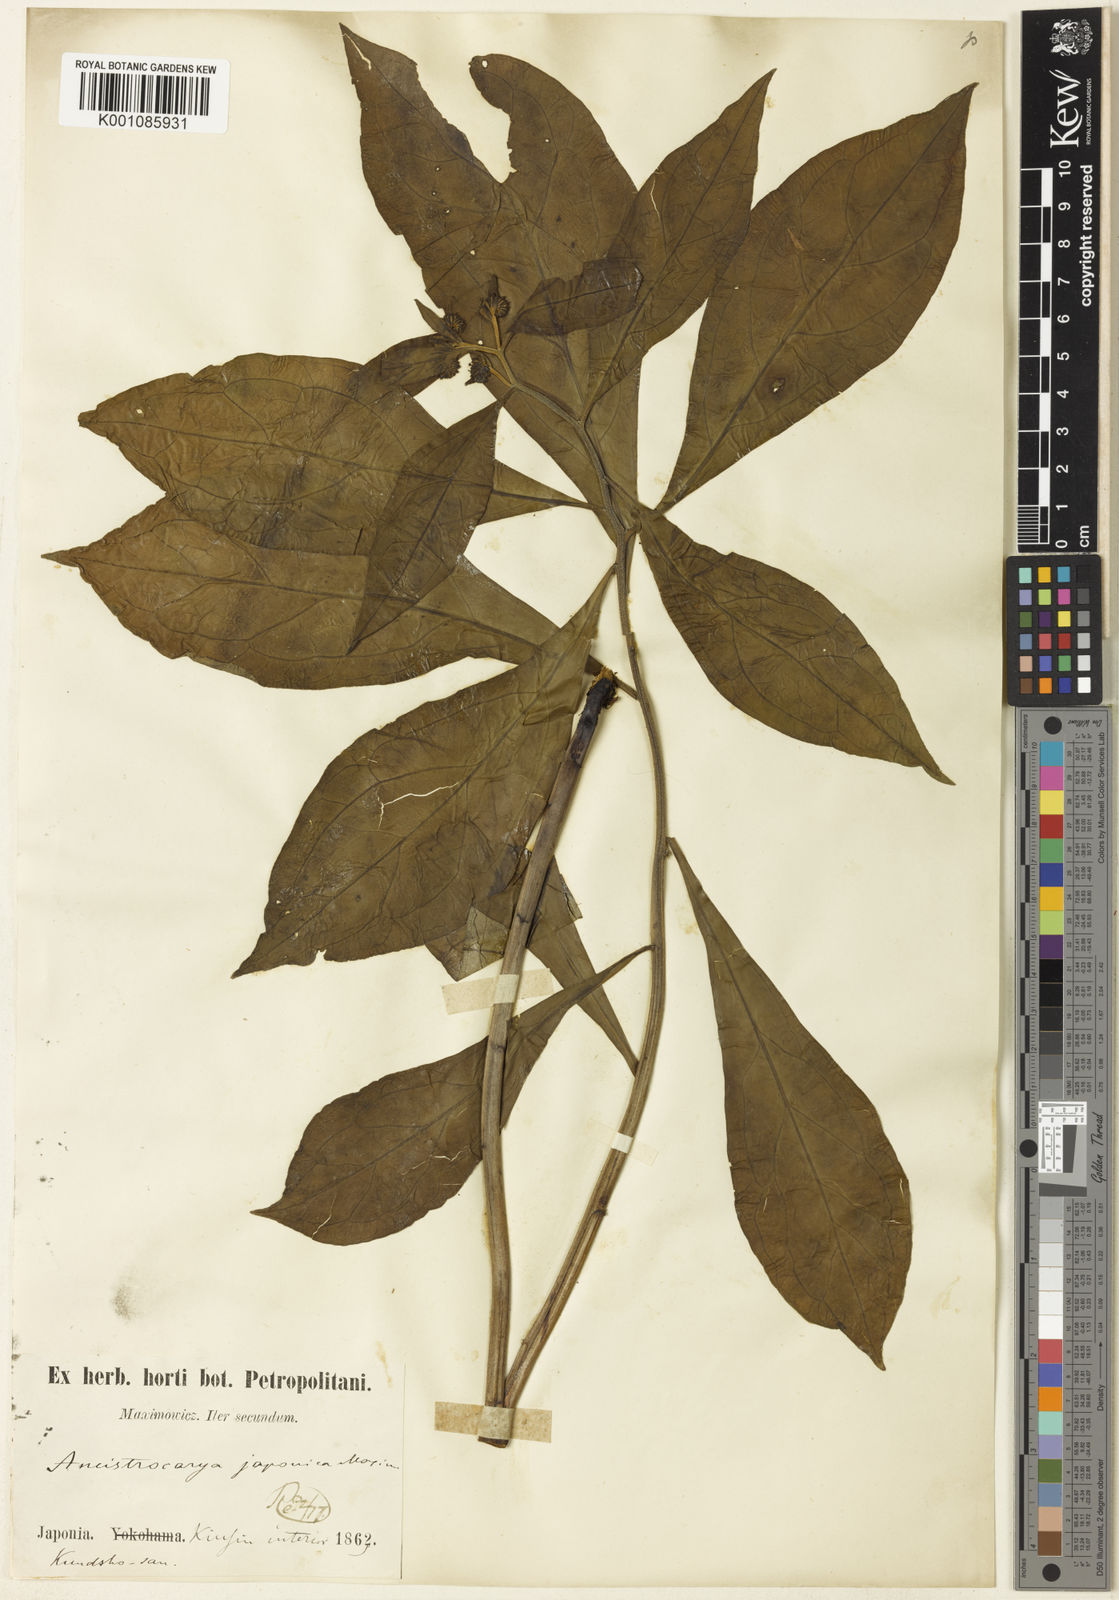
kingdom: Plantae
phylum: Tracheophyta
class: Magnoliopsida
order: Boraginales
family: Boraginaceae
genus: Ancistrocarya
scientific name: Ancistrocarya japonica
